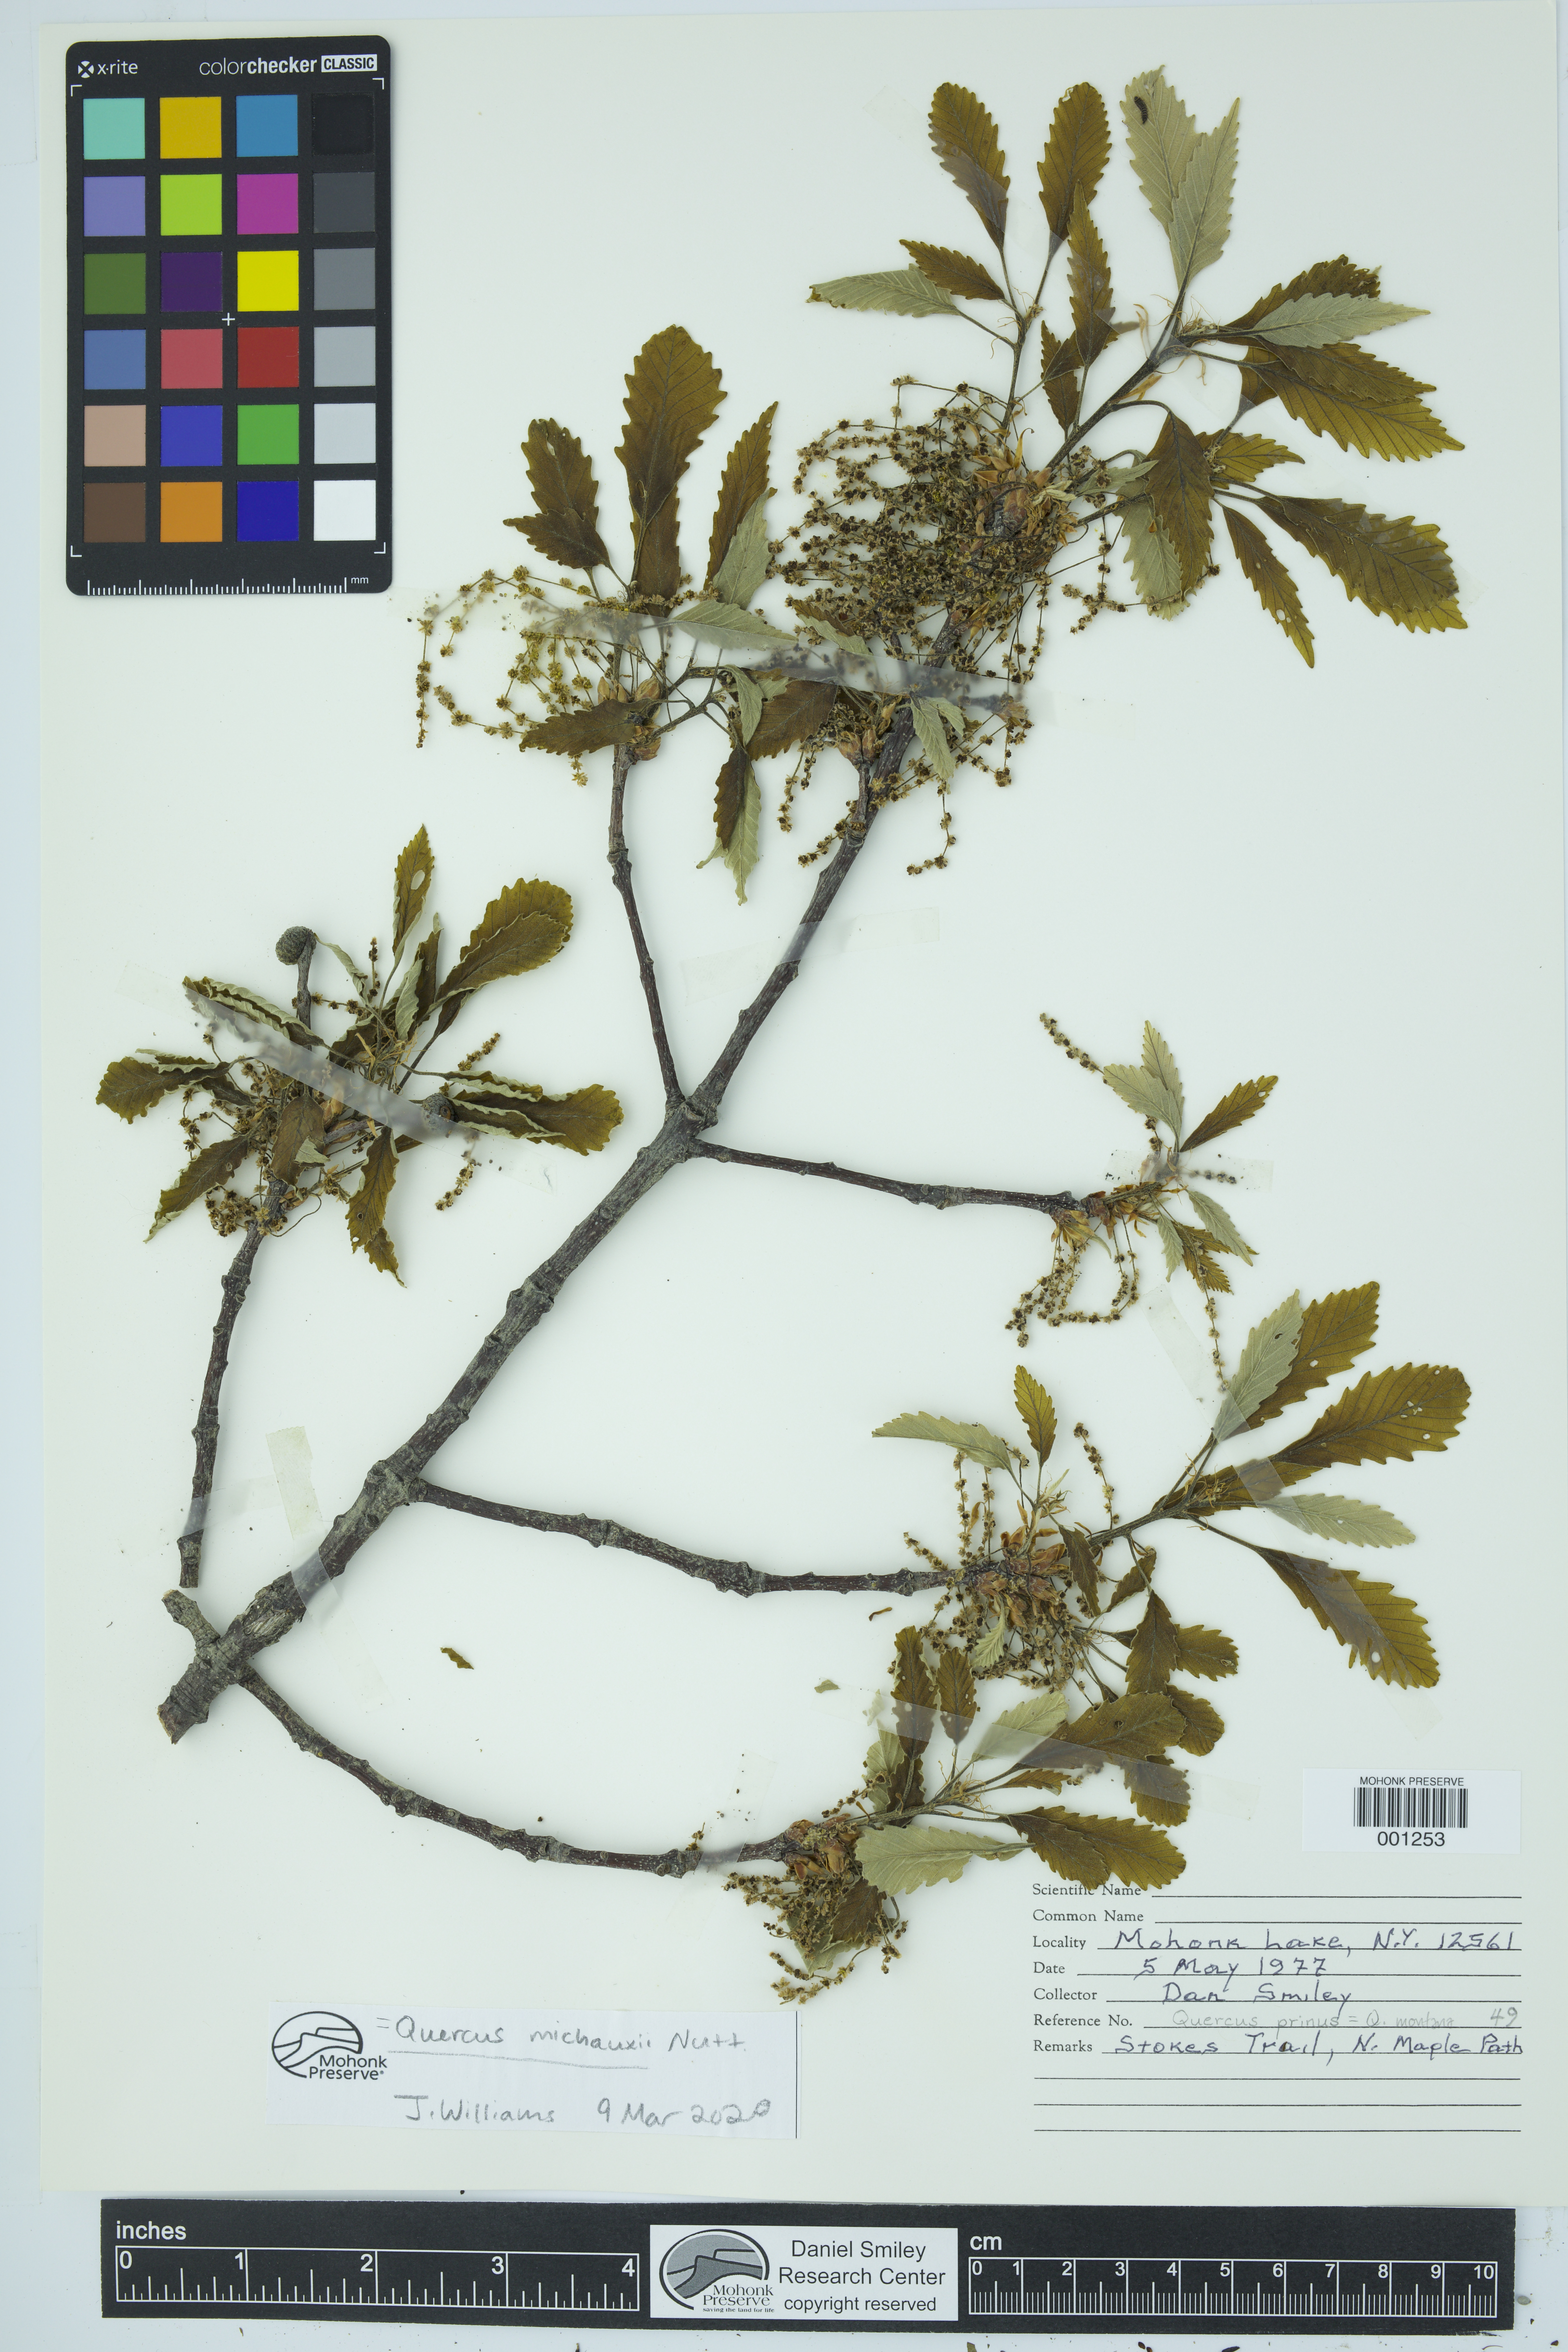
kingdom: Plantae
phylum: Tracheophyta
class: Magnoliopsida
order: Fagales
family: Fagaceae
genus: Quercus
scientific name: Quercus michauxii
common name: Swamp chestnut oak
